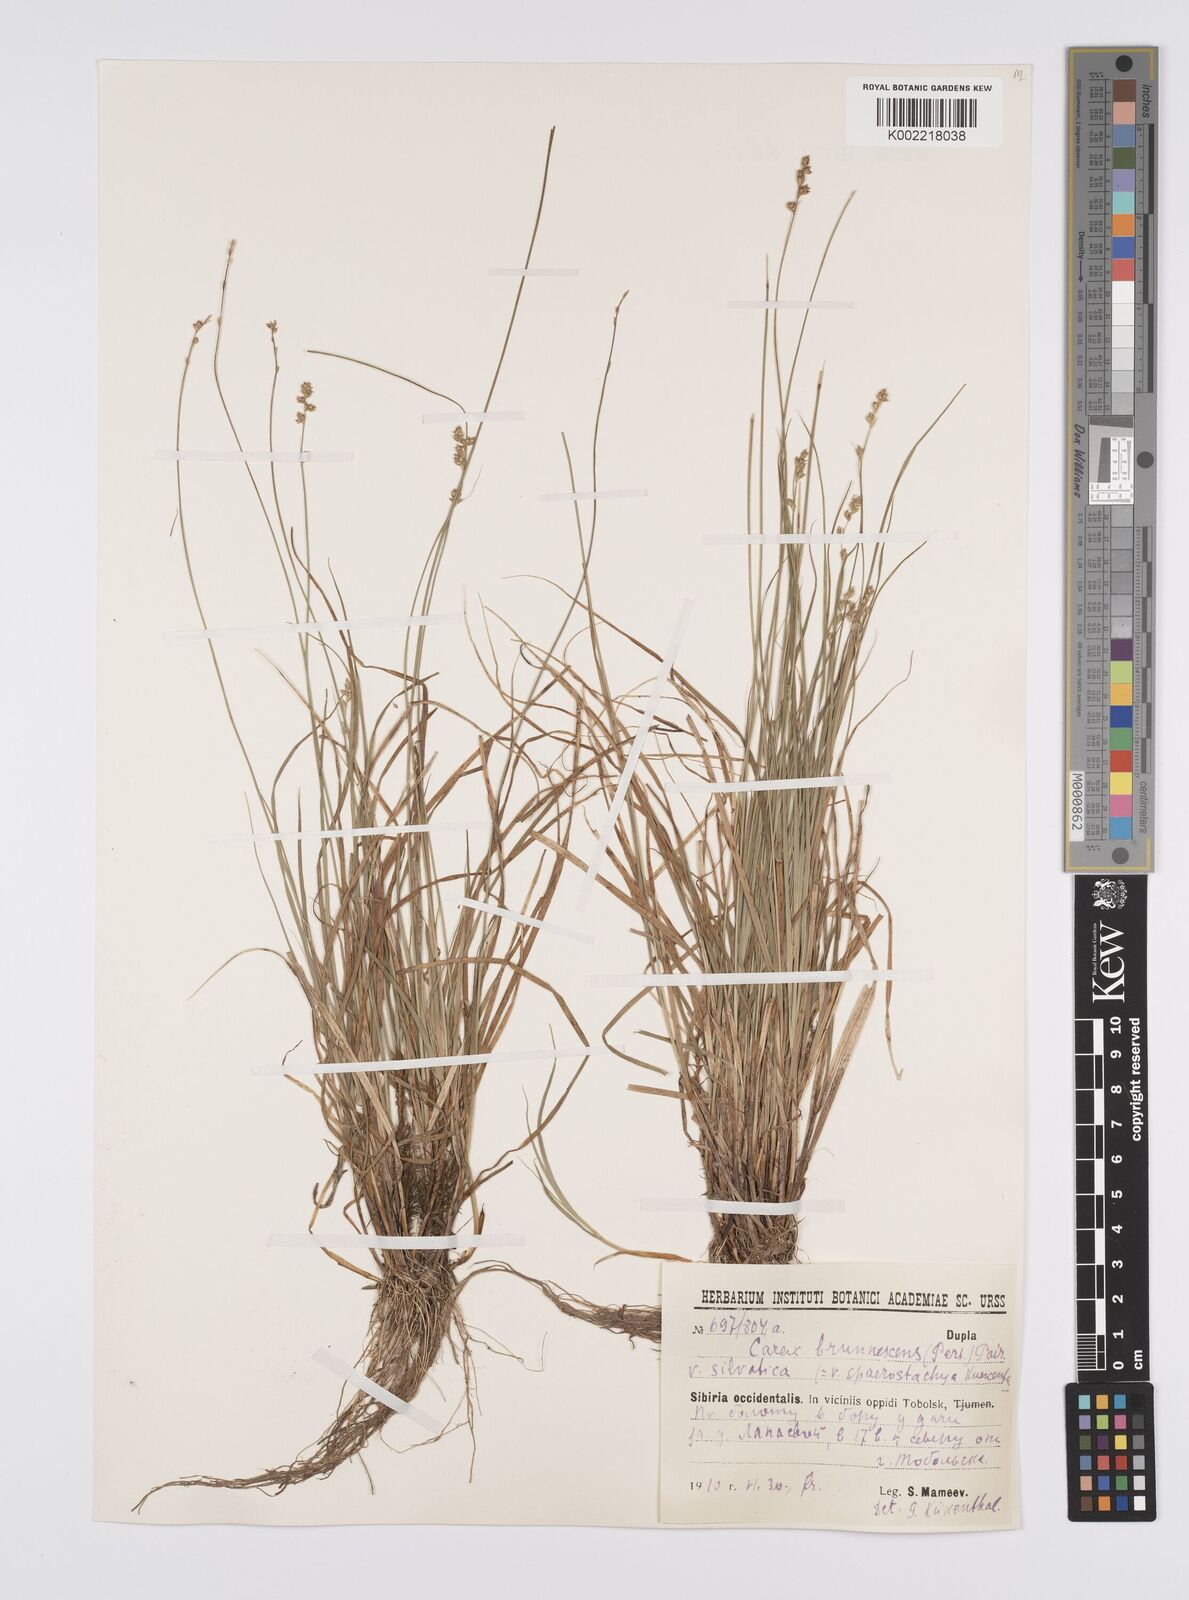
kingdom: Plantae
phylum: Tracheophyta
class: Liliopsida
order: Poales
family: Cyperaceae
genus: Carex
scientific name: Carex brunnescens
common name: Brown sedge
